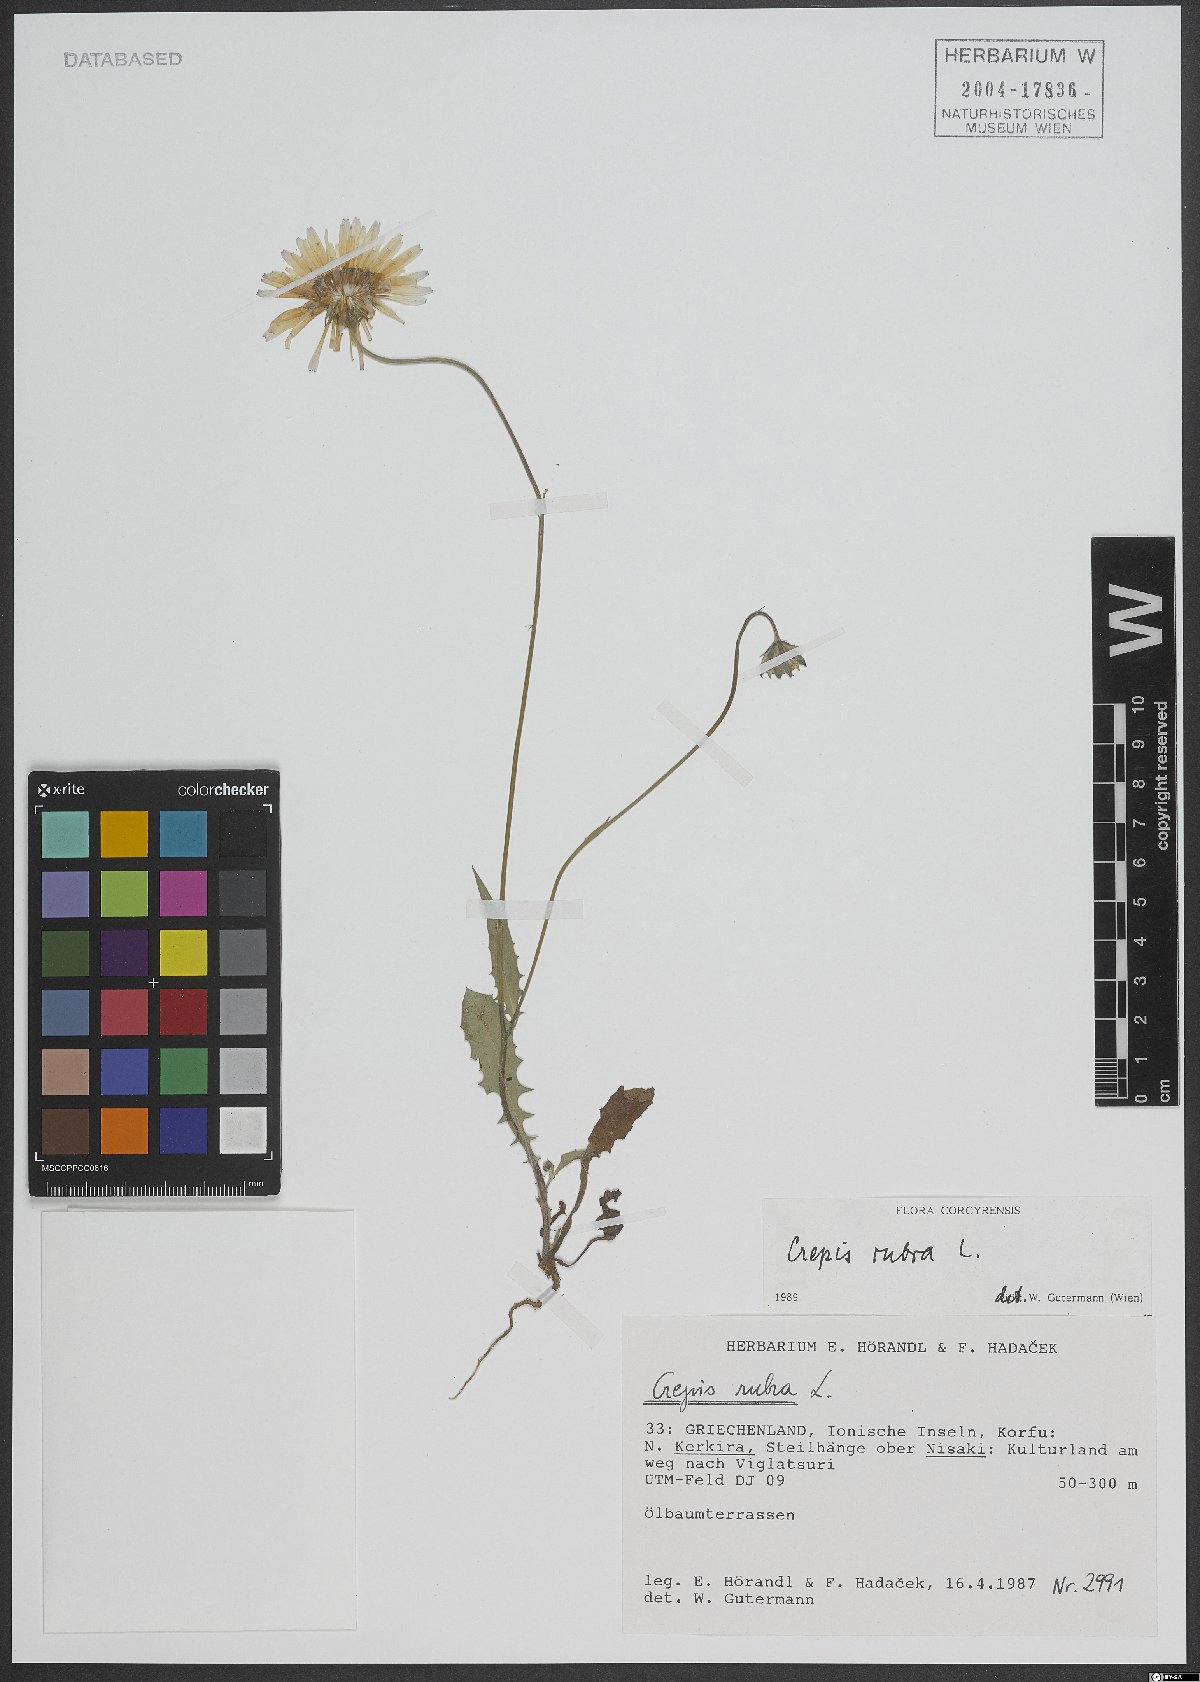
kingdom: Plantae
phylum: Tracheophyta
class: Magnoliopsida
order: Asterales
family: Asteraceae
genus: Crepis
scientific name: Crepis rubra
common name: Pink hawk's-beard
